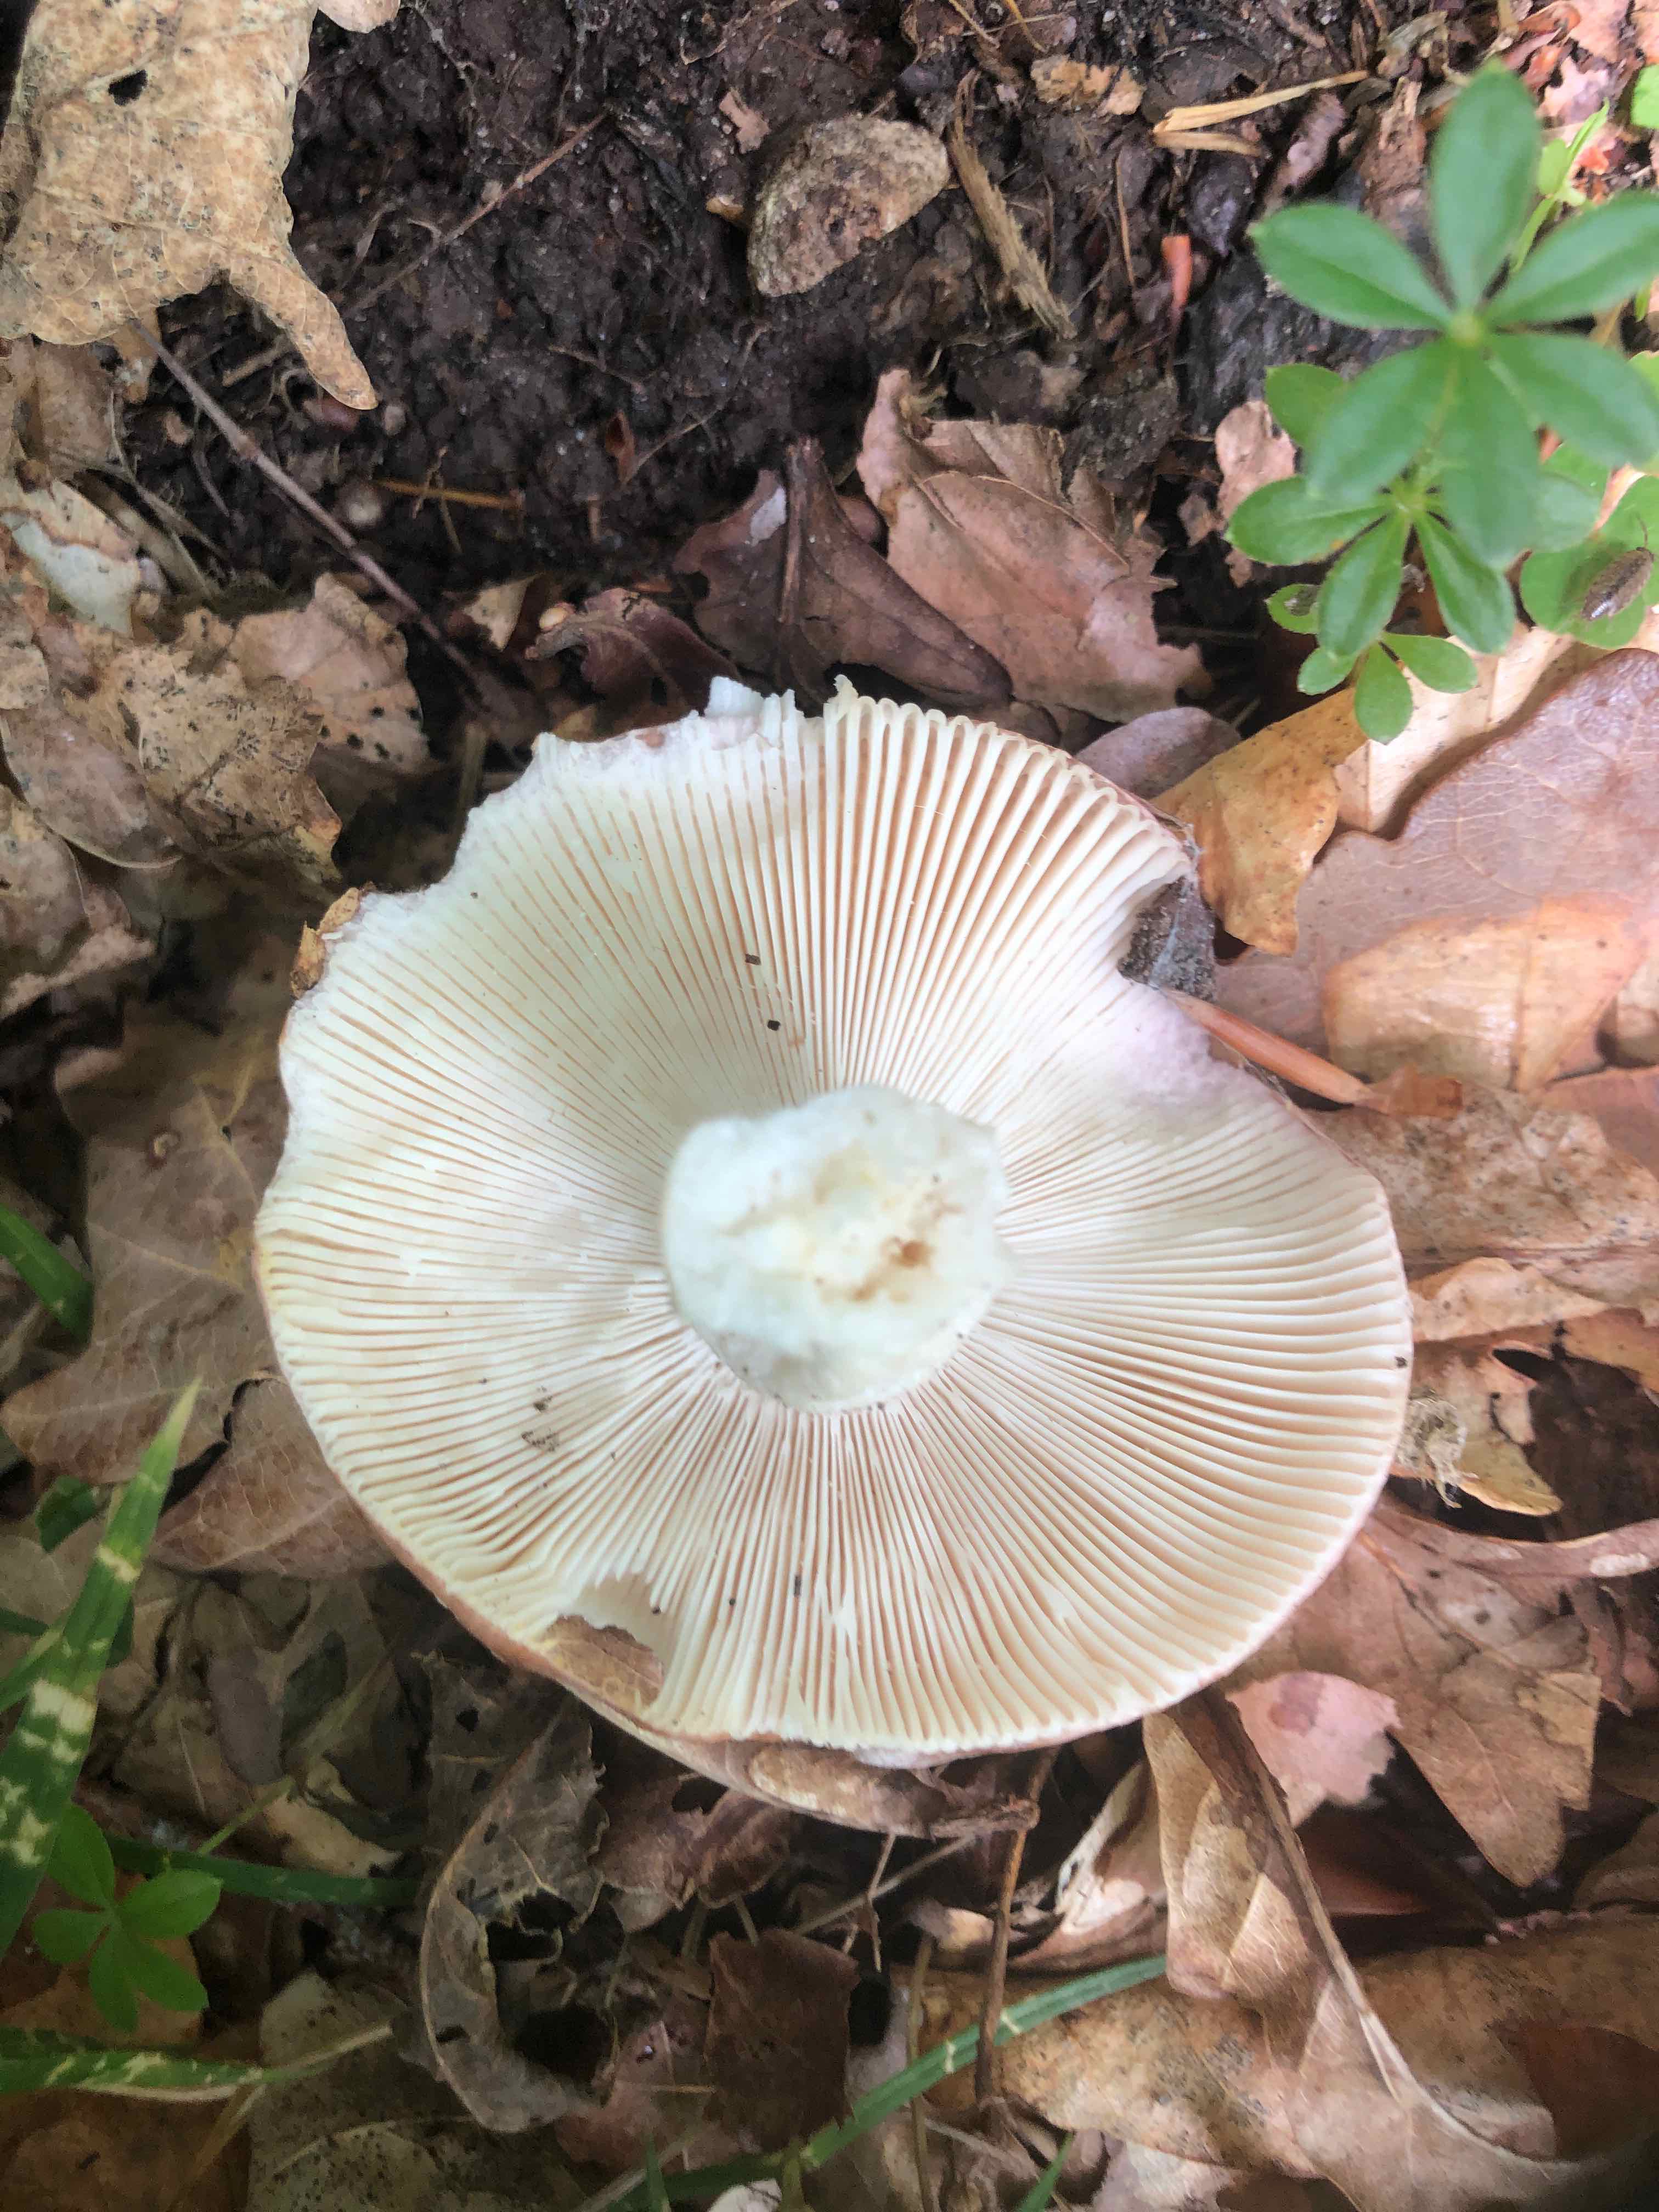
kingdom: Fungi
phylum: Basidiomycota
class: Agaricomycetes
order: Russulales
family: Russulaceae
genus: Russula
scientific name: Russula
